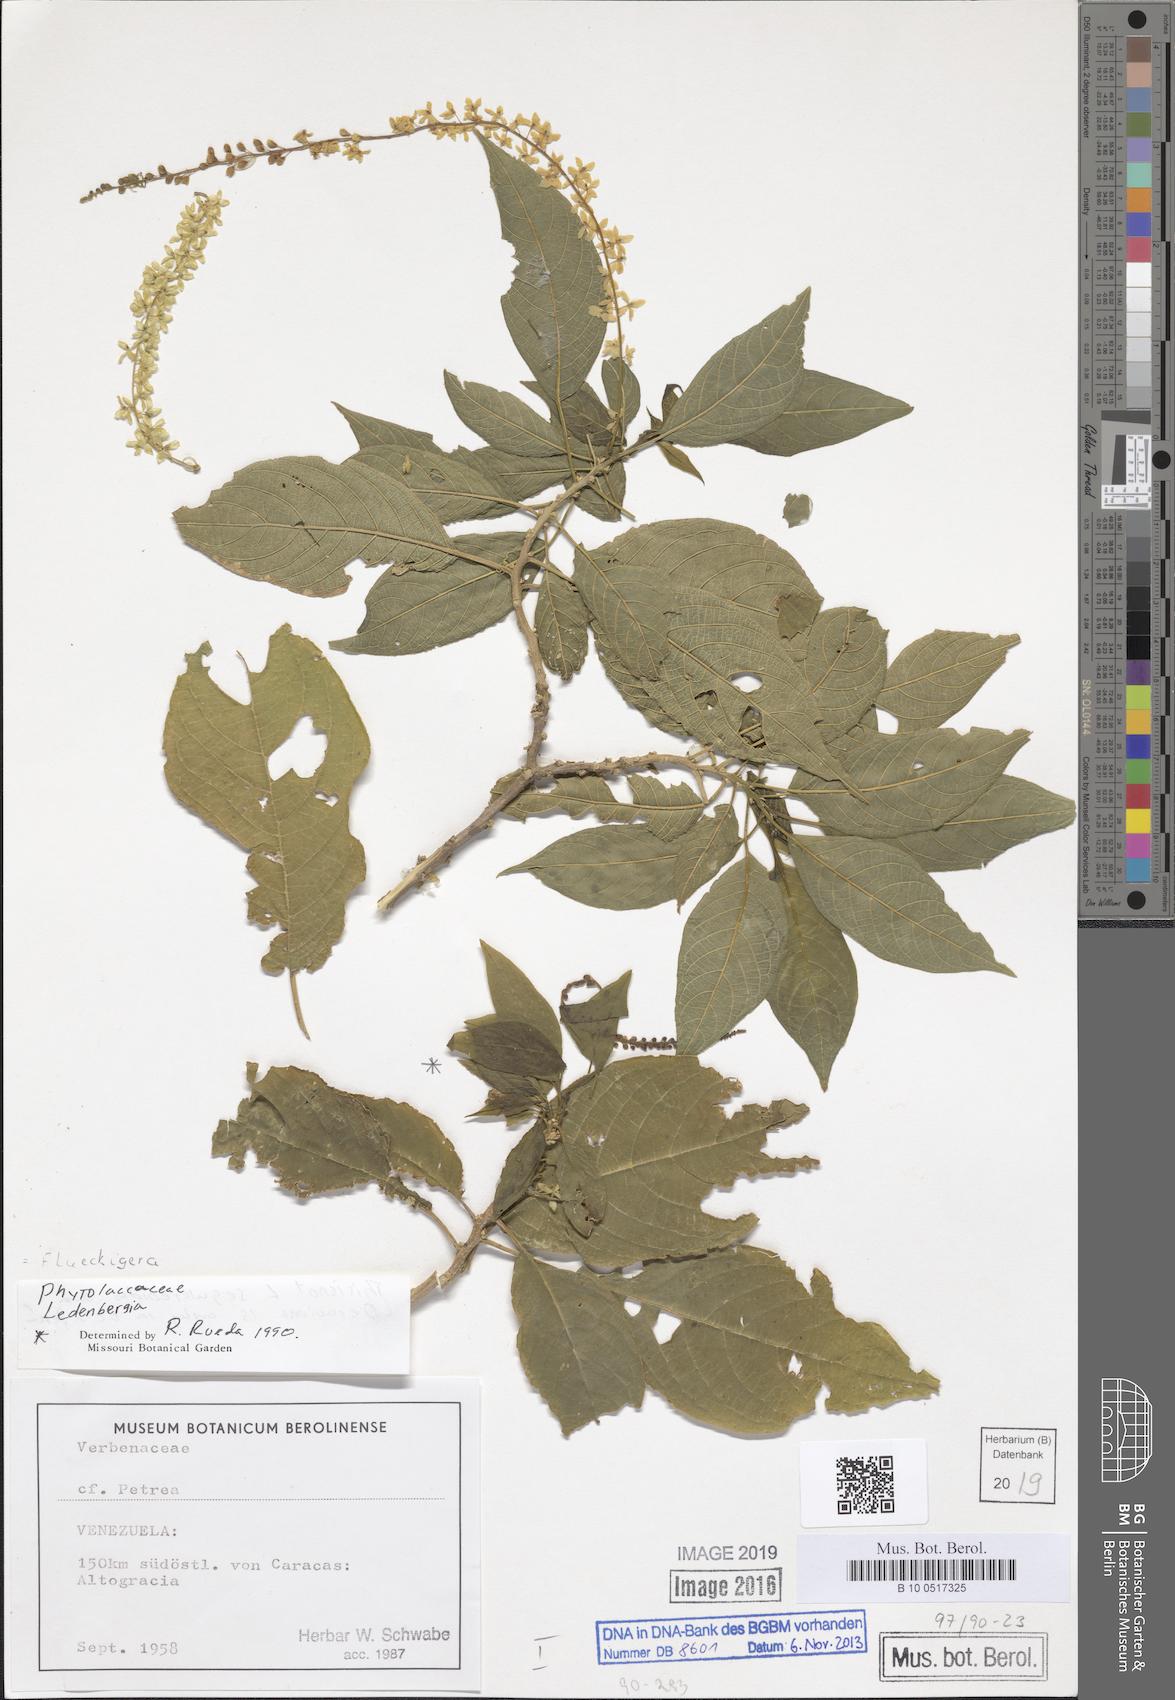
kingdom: Plantae
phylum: Tracheophyta
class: Magnoliopsida
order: Caryophyllales
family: Phytolaccaceae
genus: Ledenbergia
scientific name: Ledenbergia
